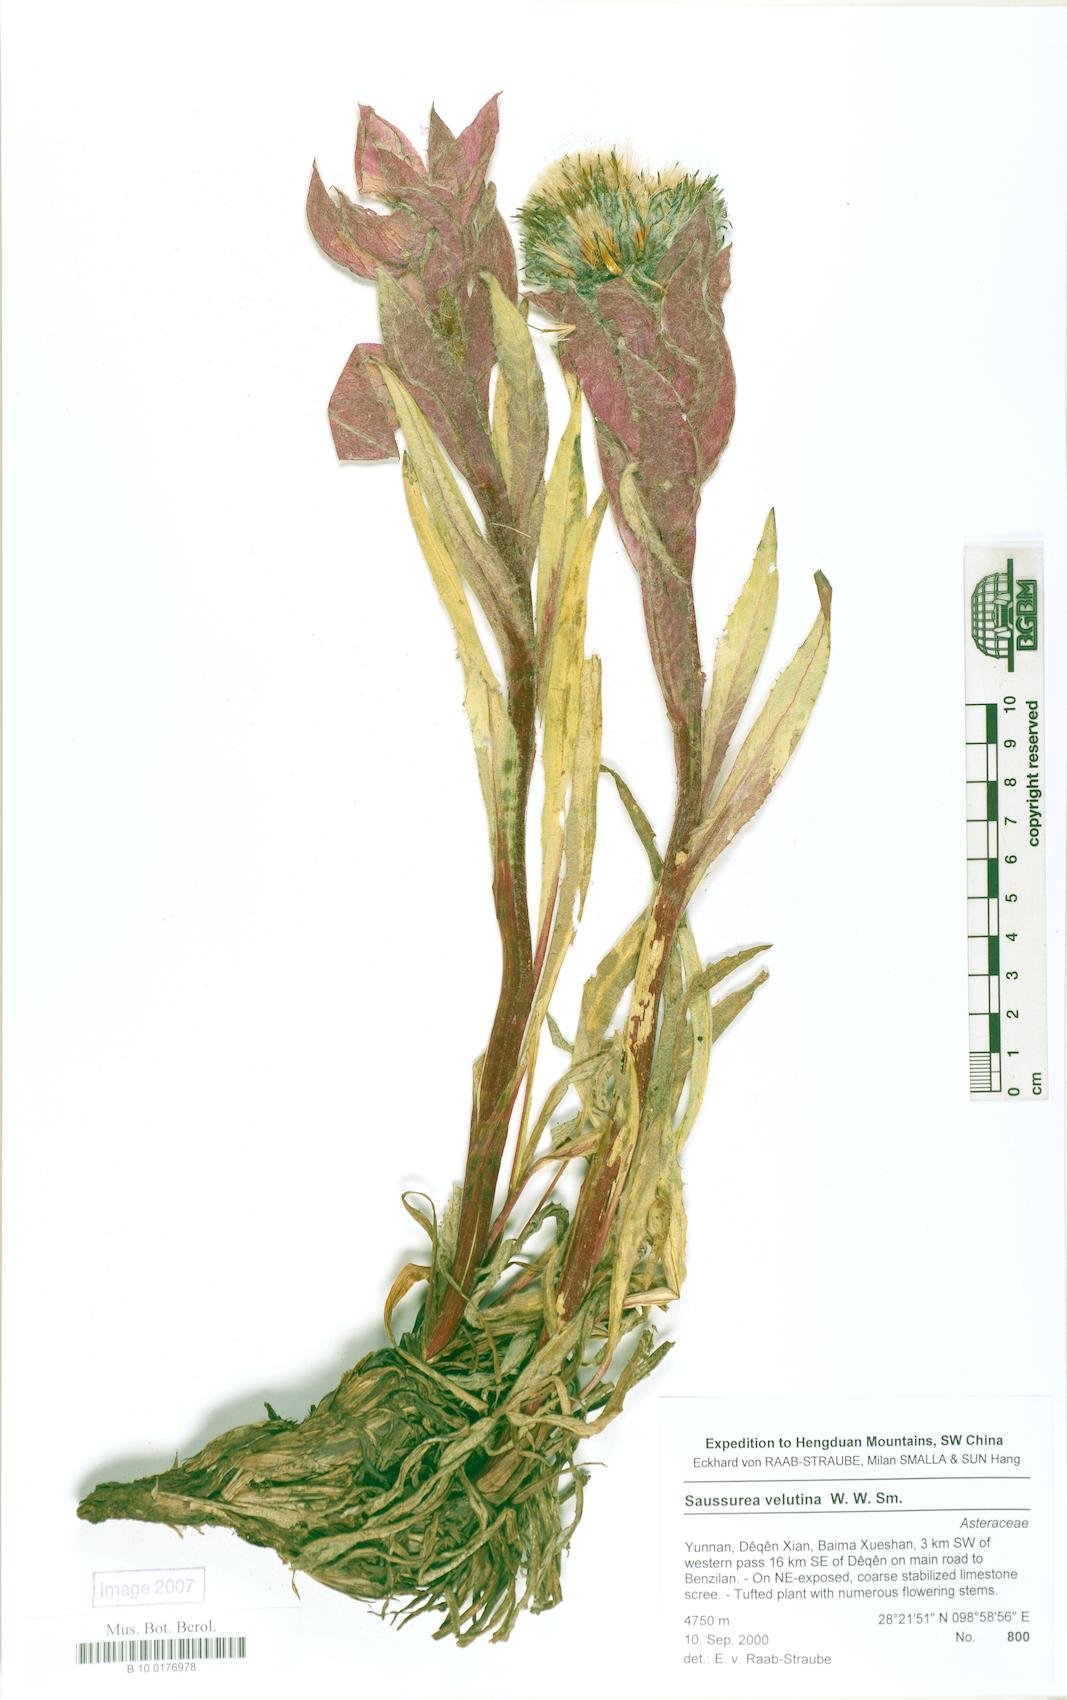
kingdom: Plantae
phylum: Tracheophyta
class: Magnoliopsida
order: Asterales
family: Asteraceae
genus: Saussurea
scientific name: Saussurea velutina
